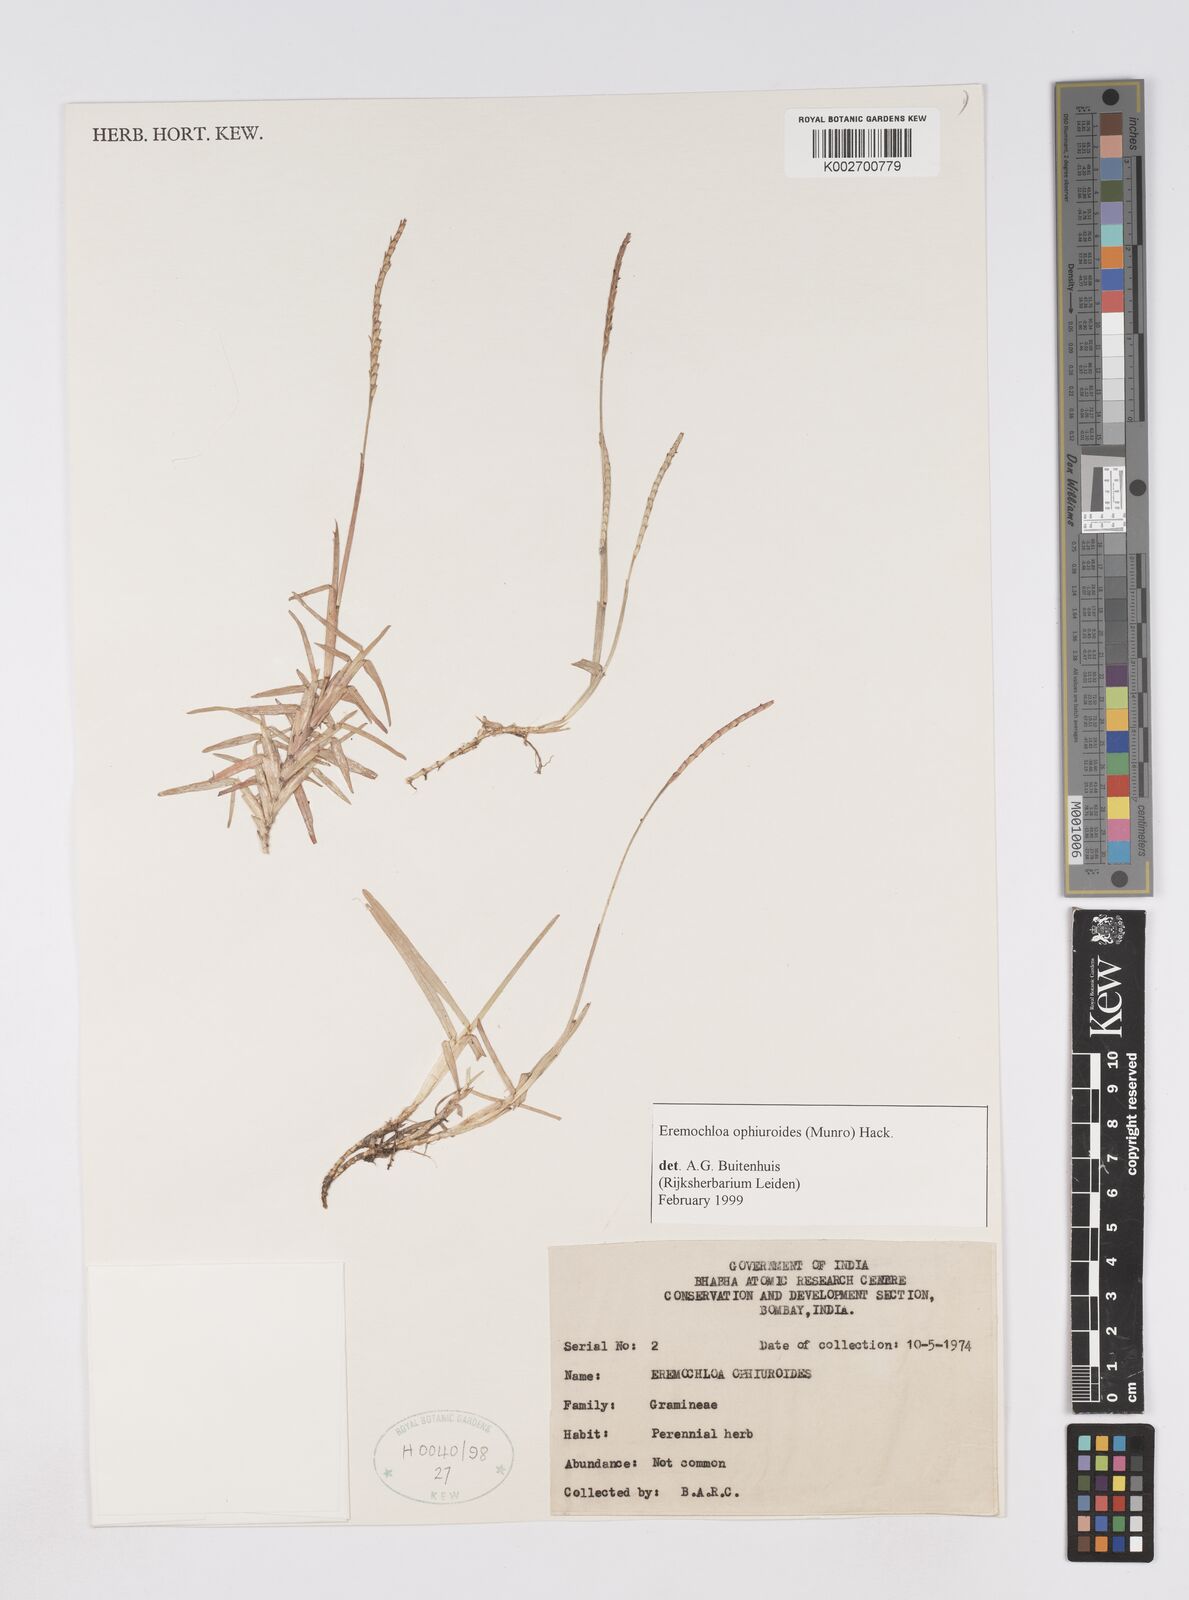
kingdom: Plantae
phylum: Tracheophyta
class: Liliopsida
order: Poales
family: Poaceae
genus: Eremochloa
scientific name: Eremochloa ophiuroides
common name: Centipede grass
